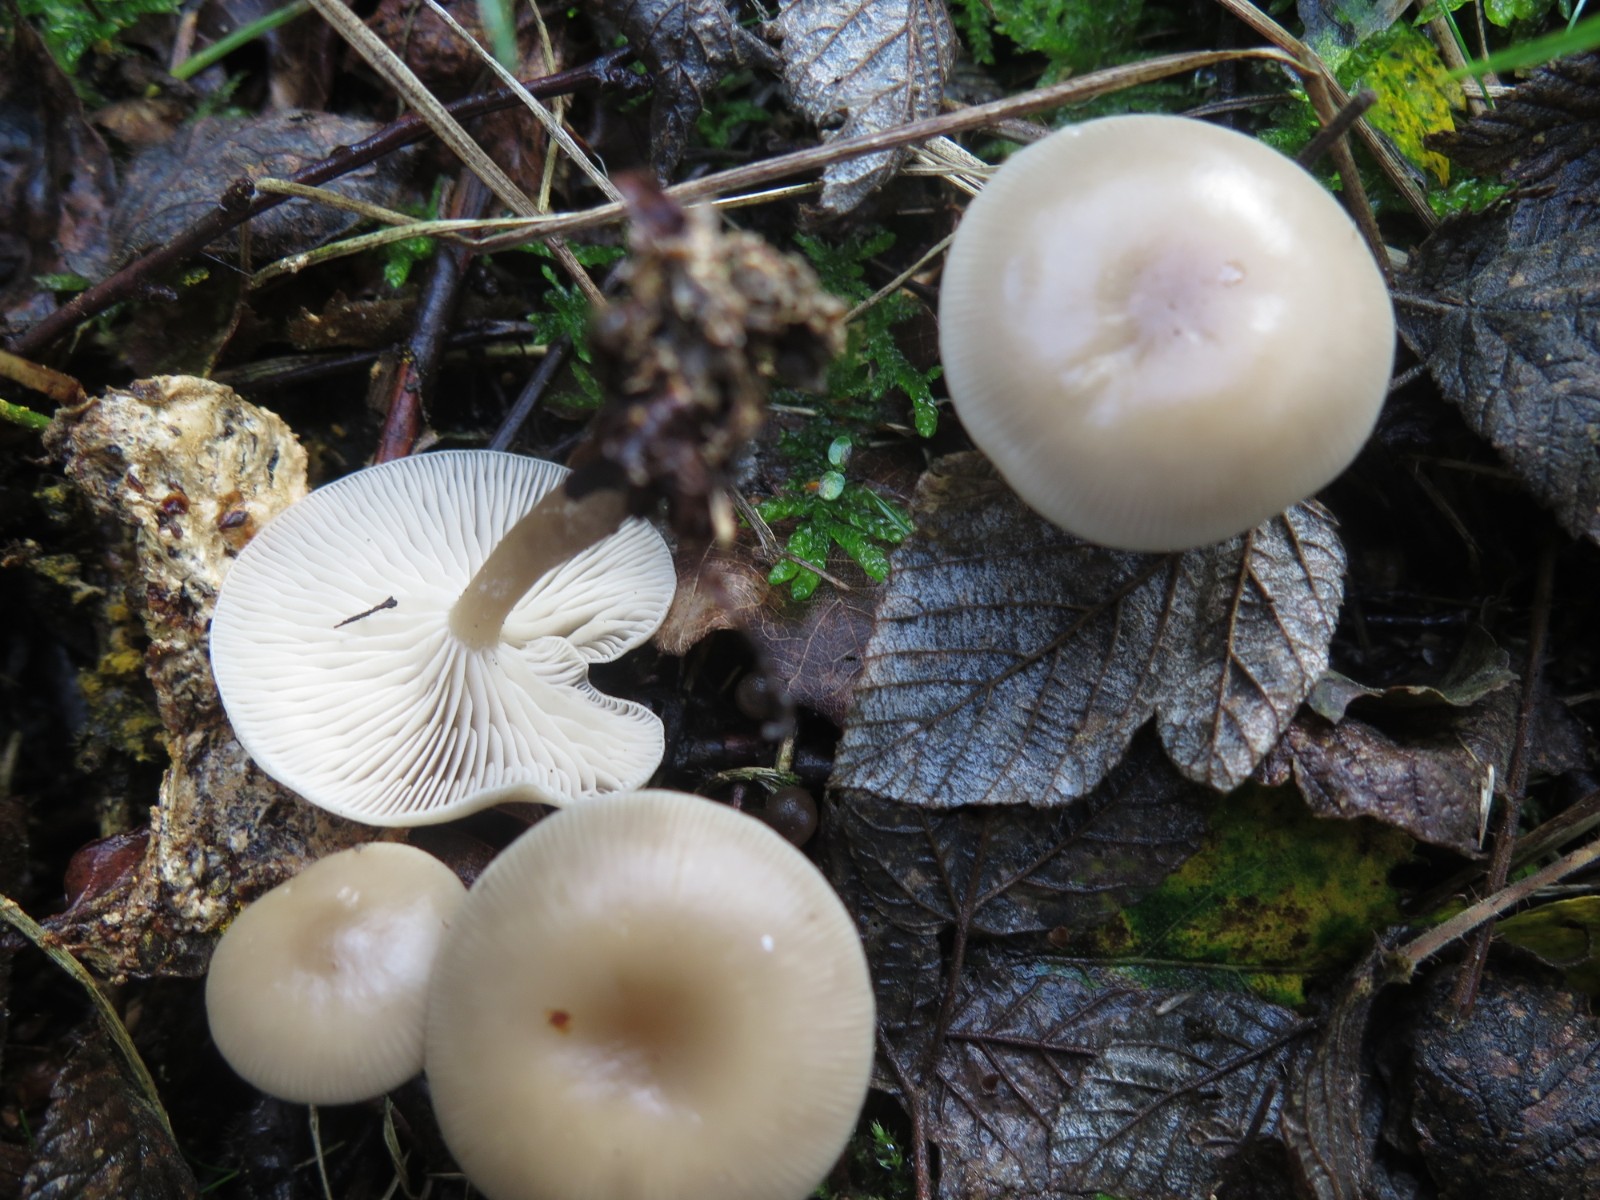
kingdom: Fungi
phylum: Basidiomycota
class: Agaricomycetes
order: Agaricales
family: Omphalotaceae
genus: Rhodocollybia
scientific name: Rhodocollybia asema
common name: horngrå fladhat
